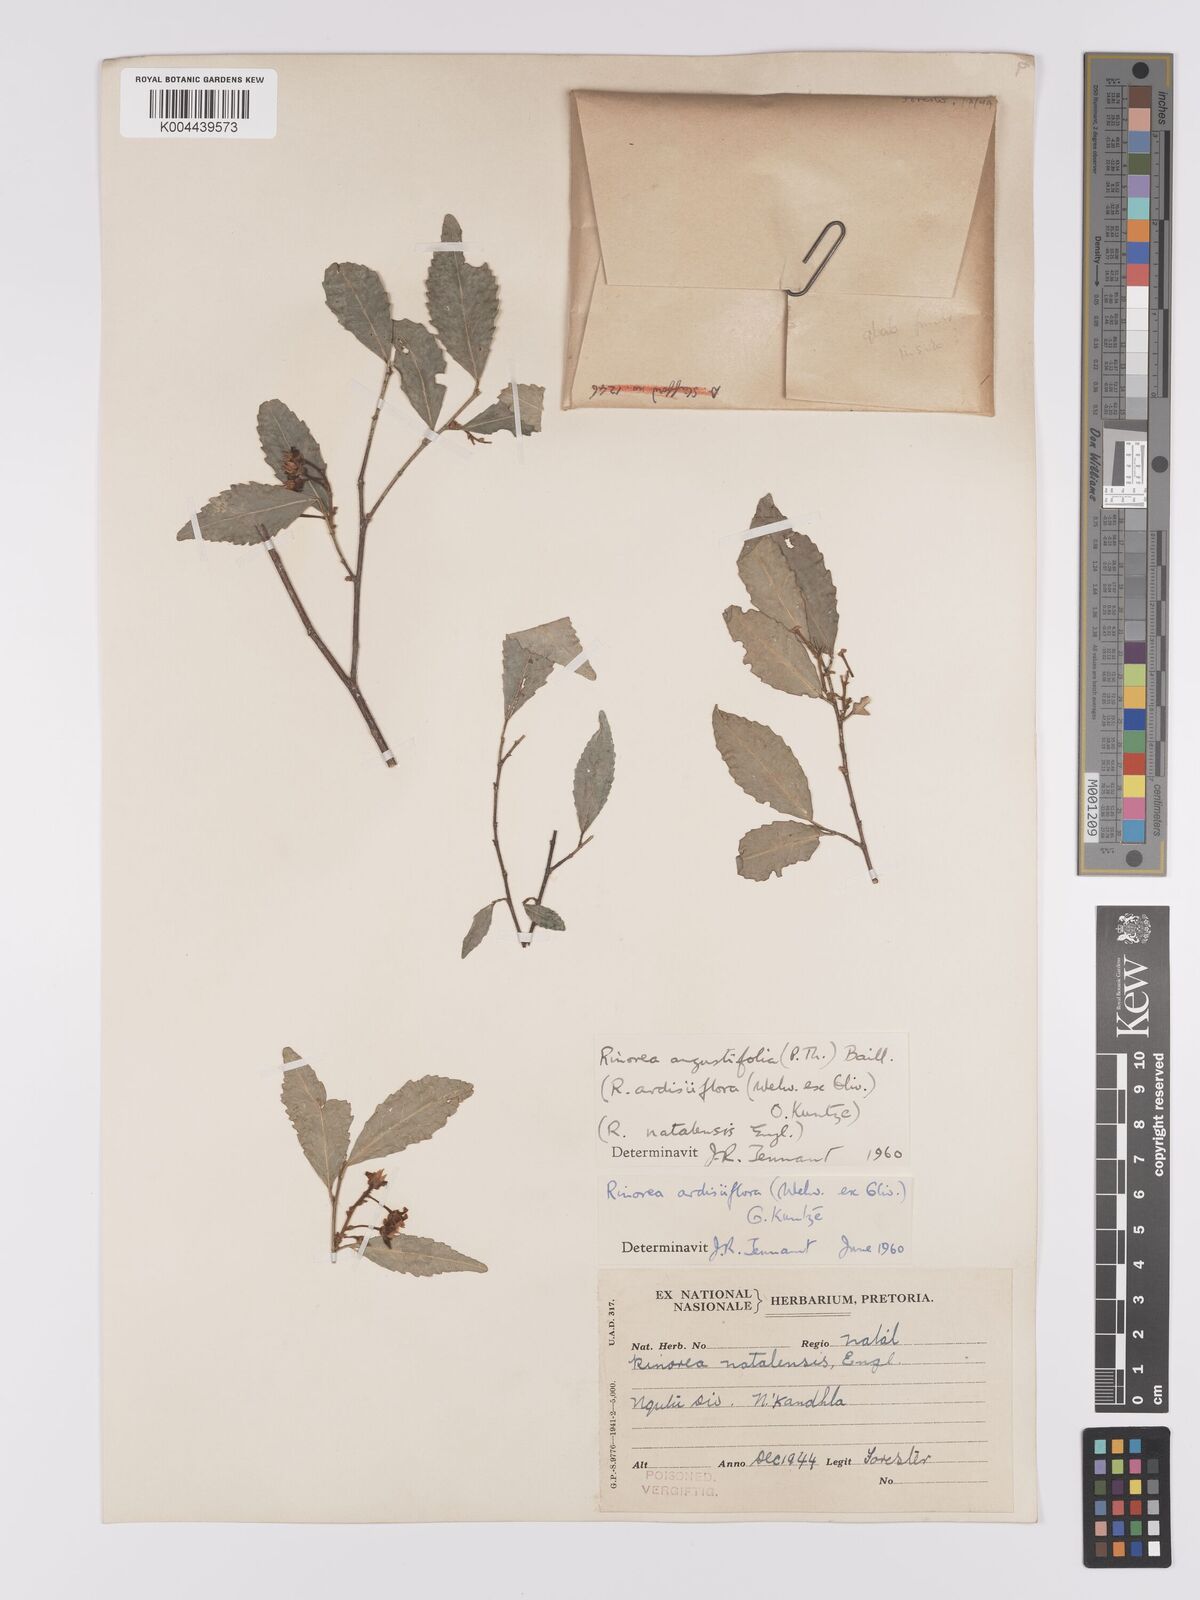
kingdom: Plantae
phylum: Tracheophyta
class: Magnoliopsida
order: Malpighiales
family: Violaceae
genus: Rinorea
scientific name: Rinorea angustifolia
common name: White violet-bush
